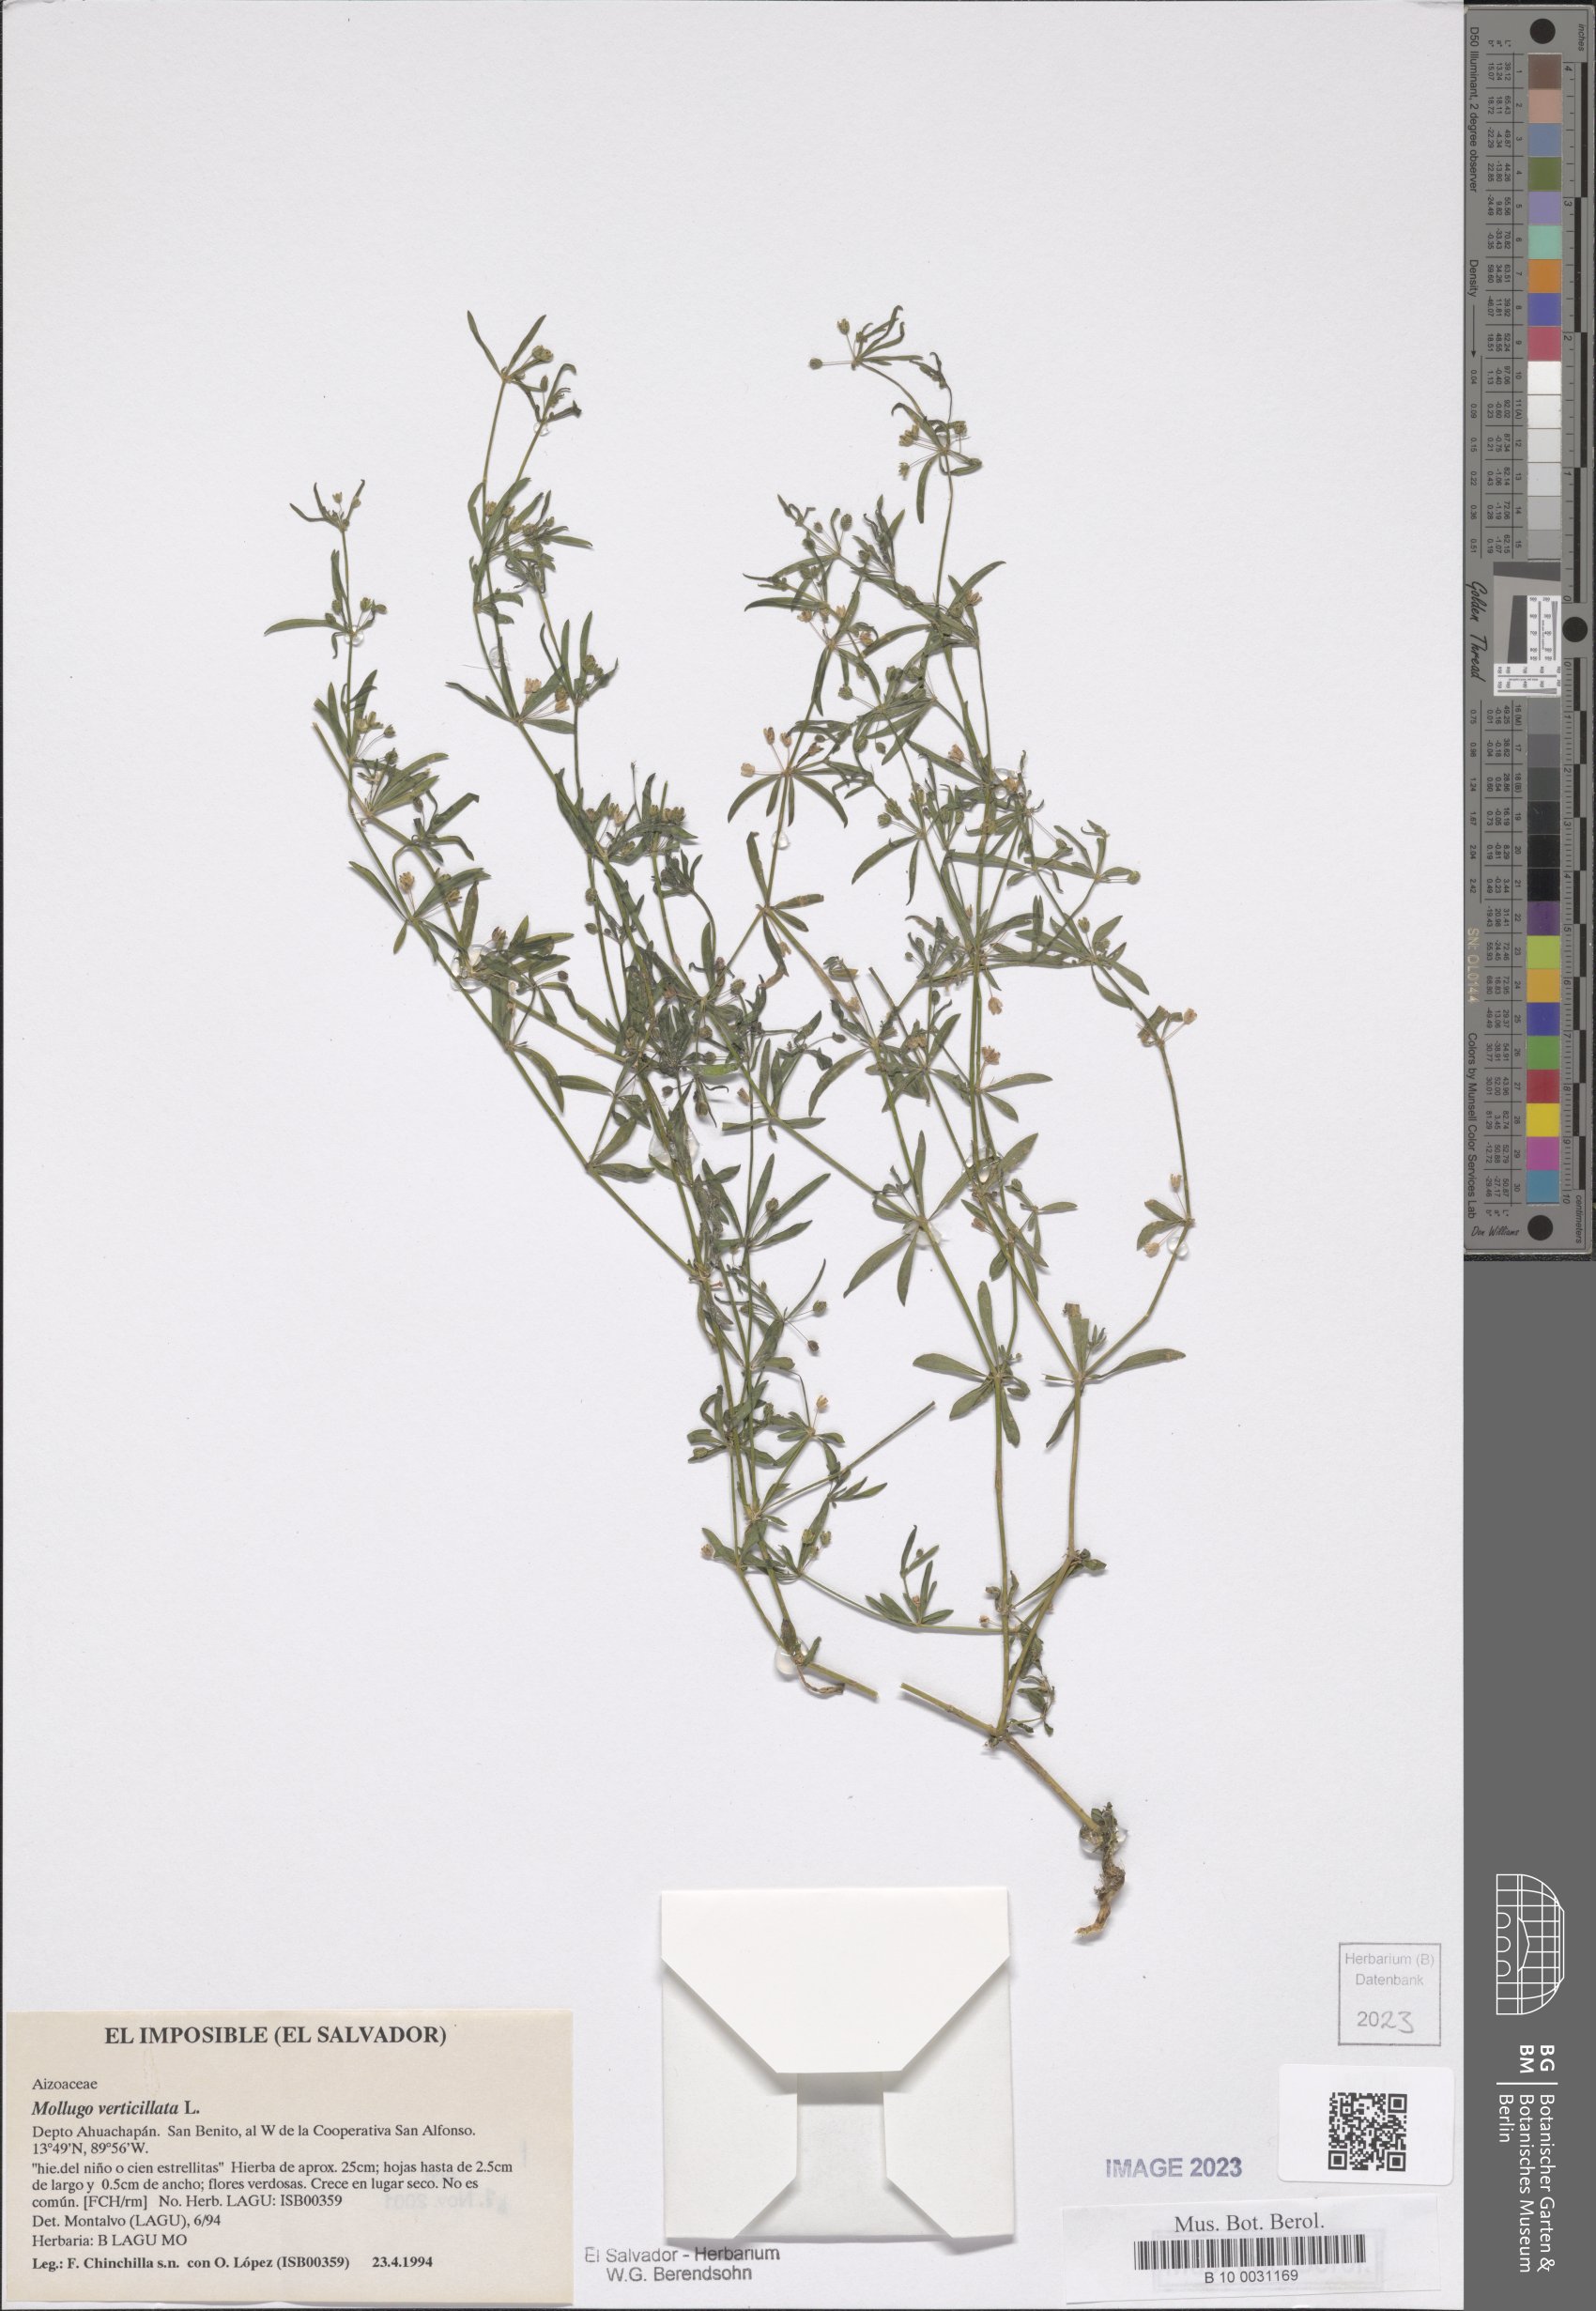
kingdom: Plantae
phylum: Tracheophyta
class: Magnoliopsida
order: Caryophyllales
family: Molluginaceae
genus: Mollugo
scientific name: Mollugo verticillata
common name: Green carpetweed
